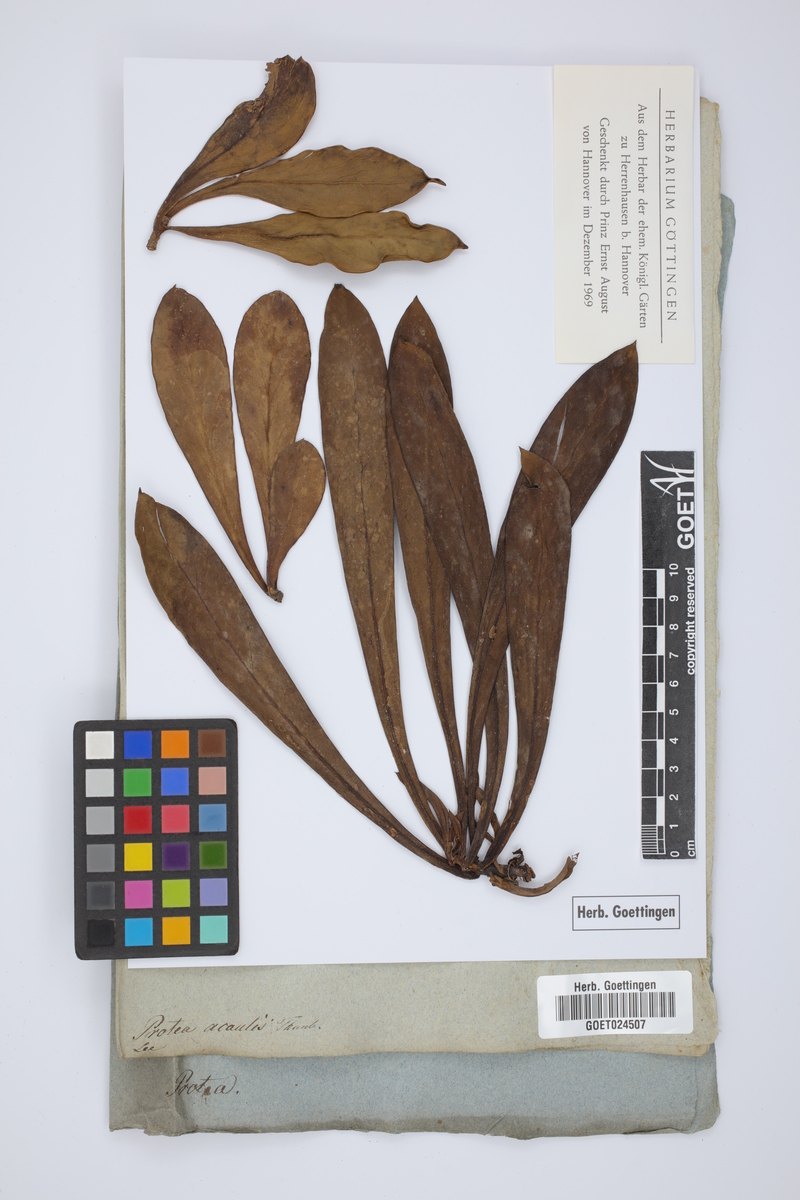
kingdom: Plantae
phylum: Tracheophyta
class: Magnoliopsida
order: Proteales
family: Proteaceae
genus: Protea
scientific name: Protea acaulos
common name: Common ground sugarbush
